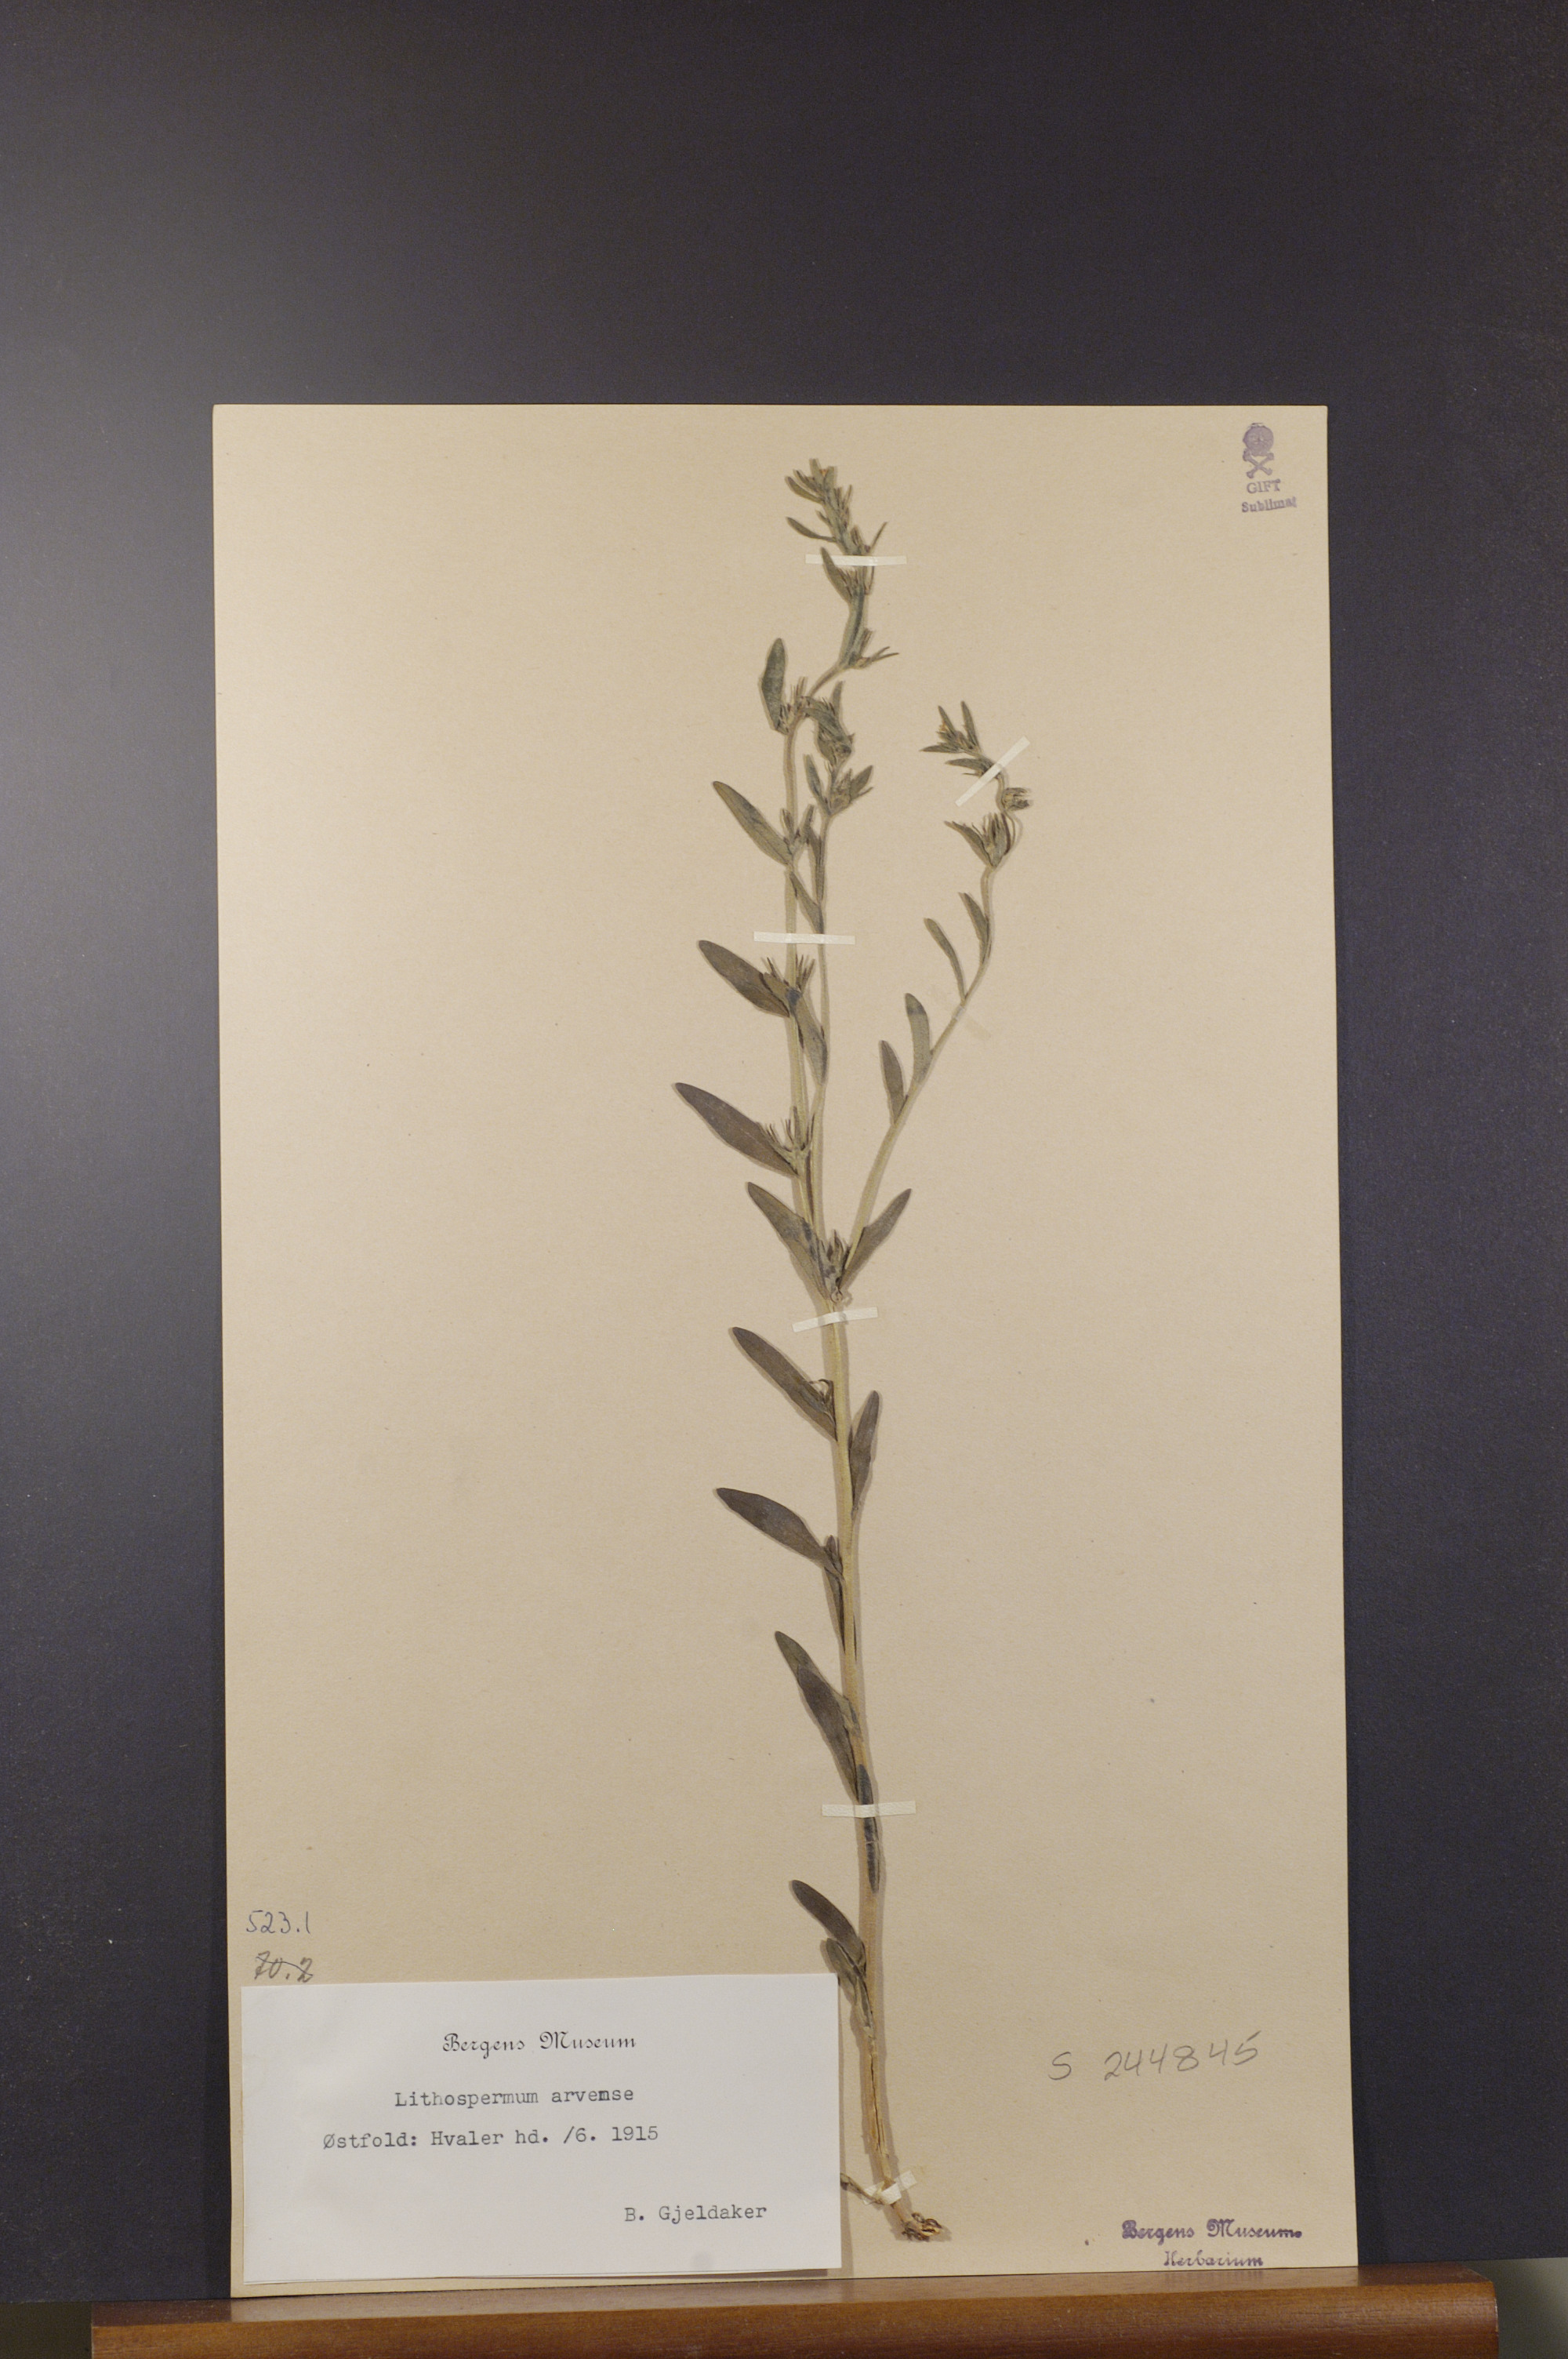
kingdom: Plantae
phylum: Tracheophyta
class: Magnoliopsida
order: Boraginales
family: Boraginaceae
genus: Buglossoides
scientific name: Buglossoides arvensis
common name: Corn gromwell
